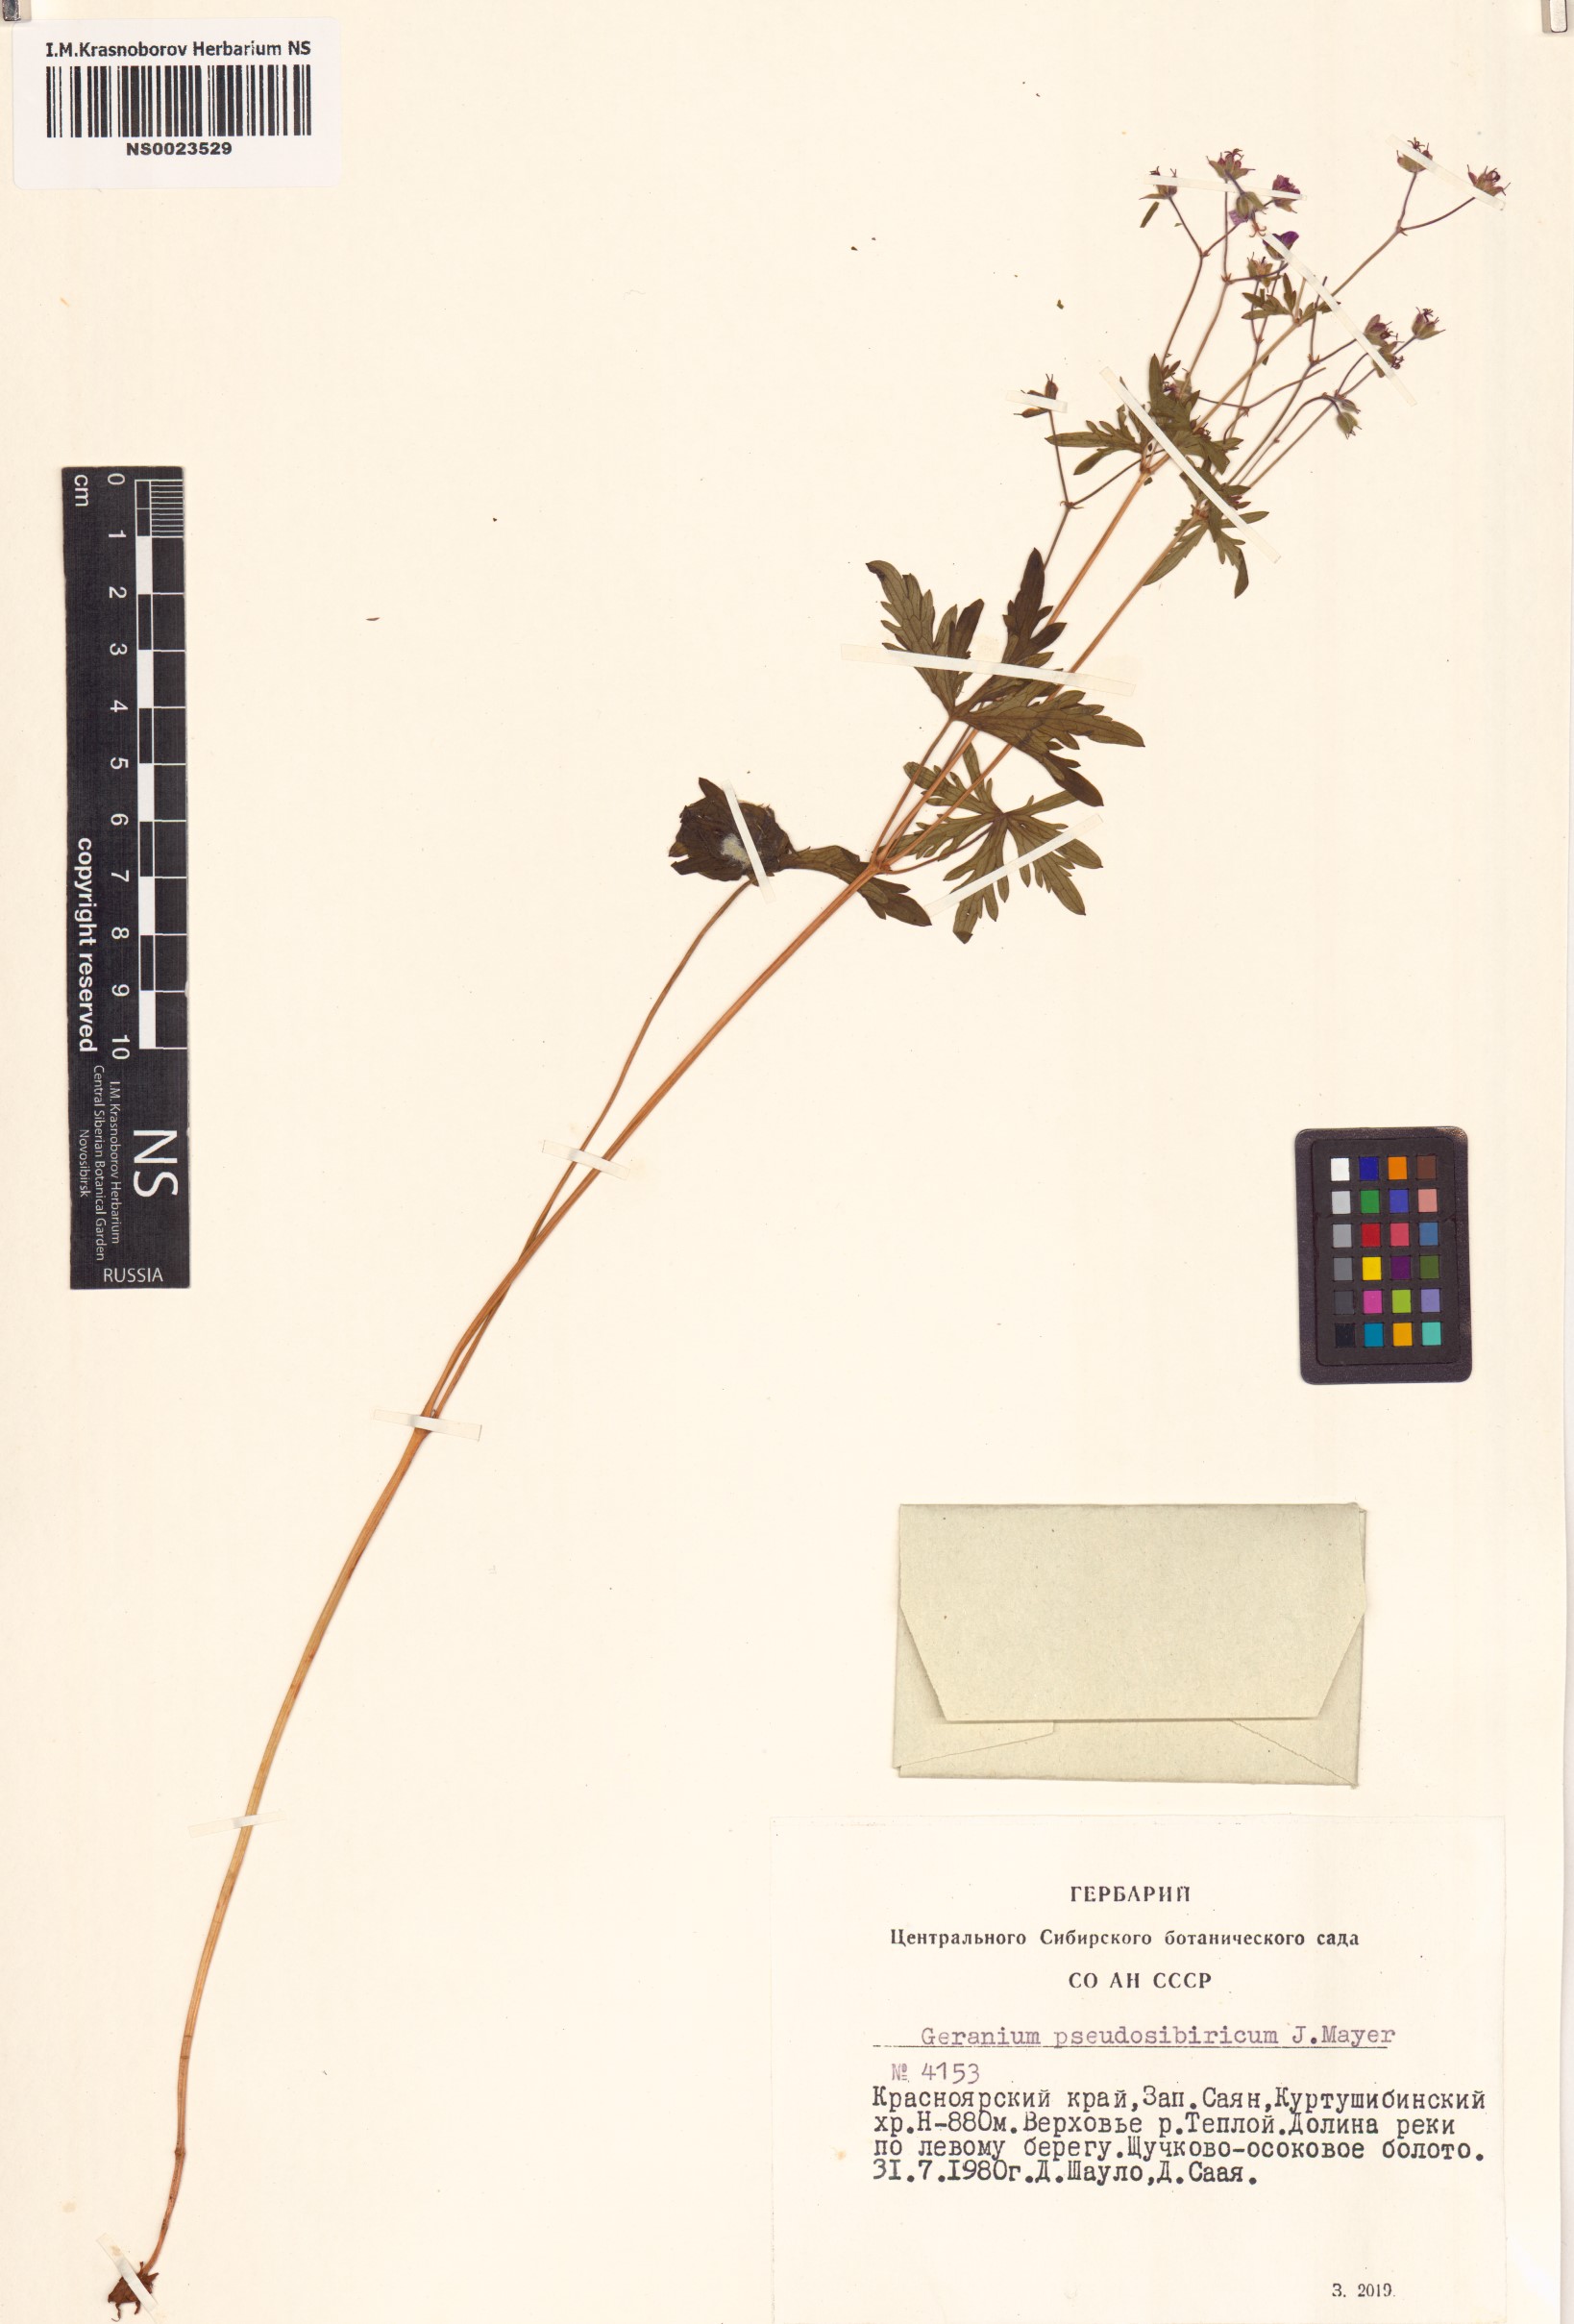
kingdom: Plantae
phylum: Tracheophyta
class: Magnoliopsida
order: Geraniales
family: Geraniaceae
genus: Geranium
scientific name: Geranium pseudosibiricum
